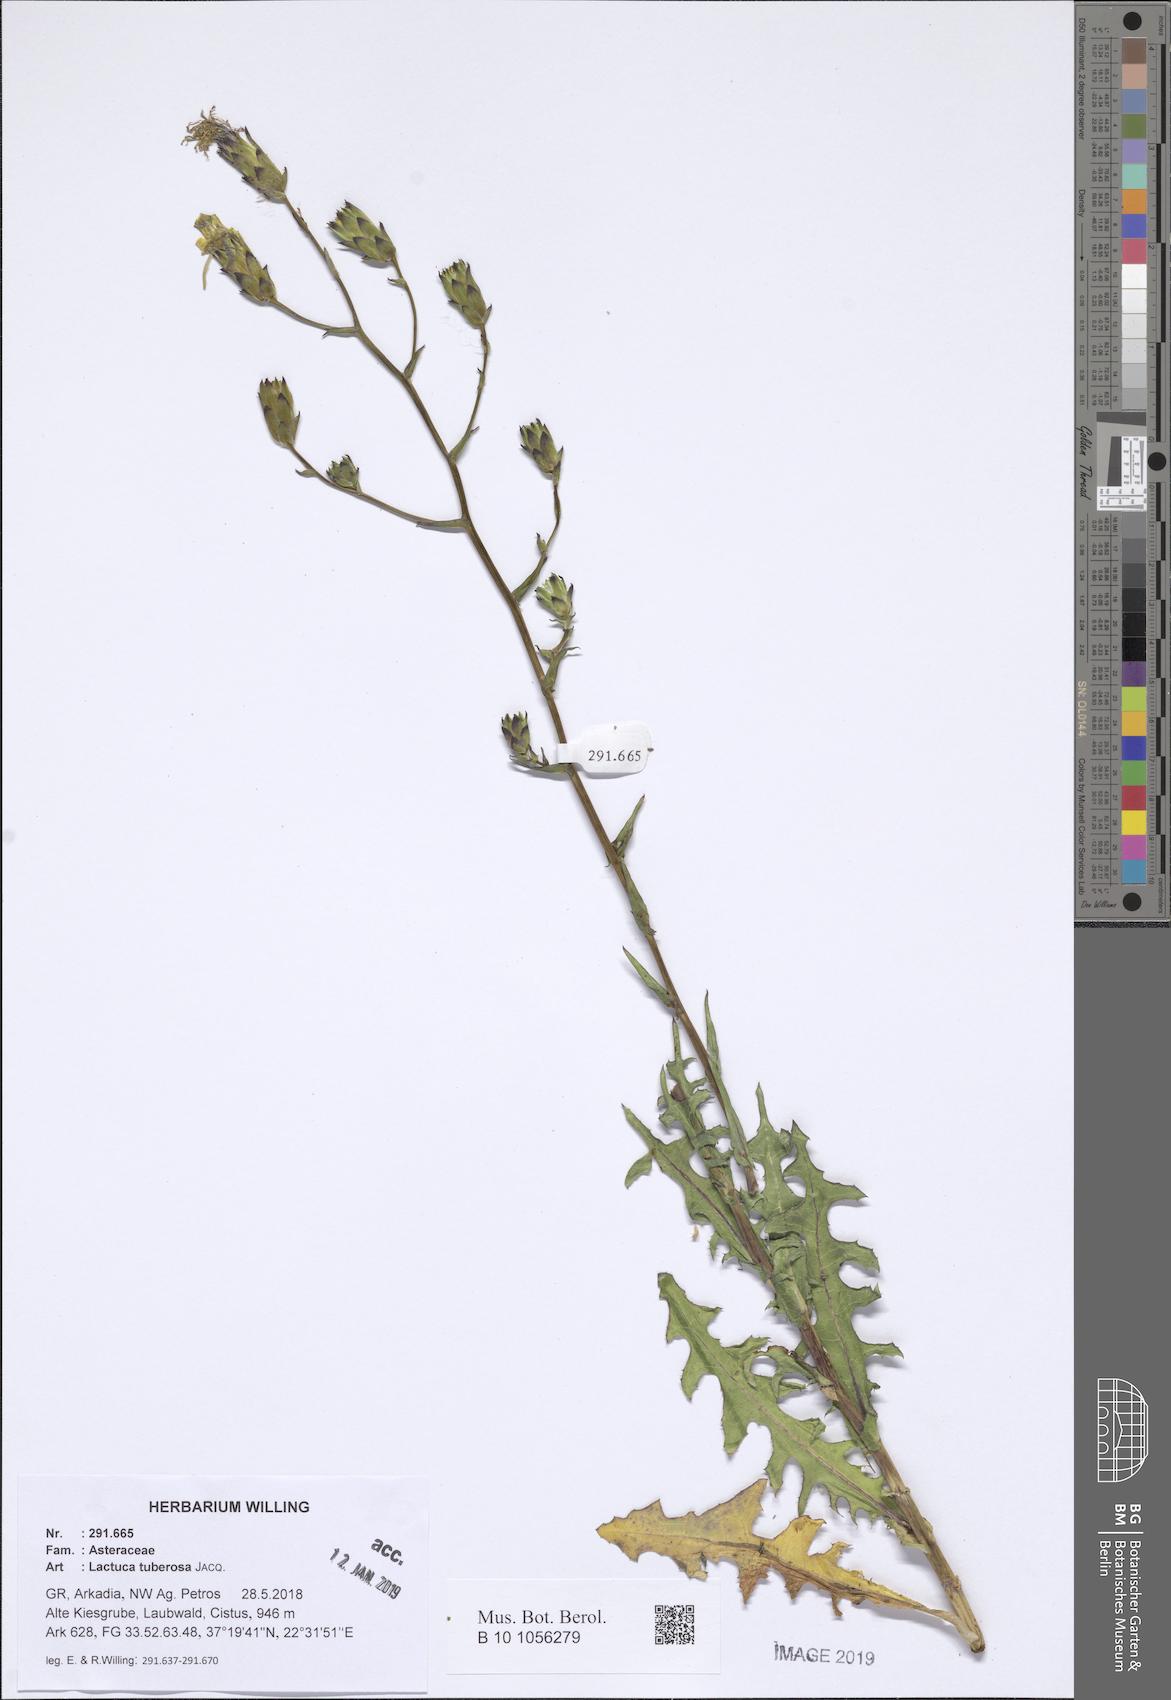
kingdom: Plantae
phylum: Tracheophyta
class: Magnoliopsida
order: Asterales
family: Asteraceae
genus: Lactuca
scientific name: Lactuca tuberosa
